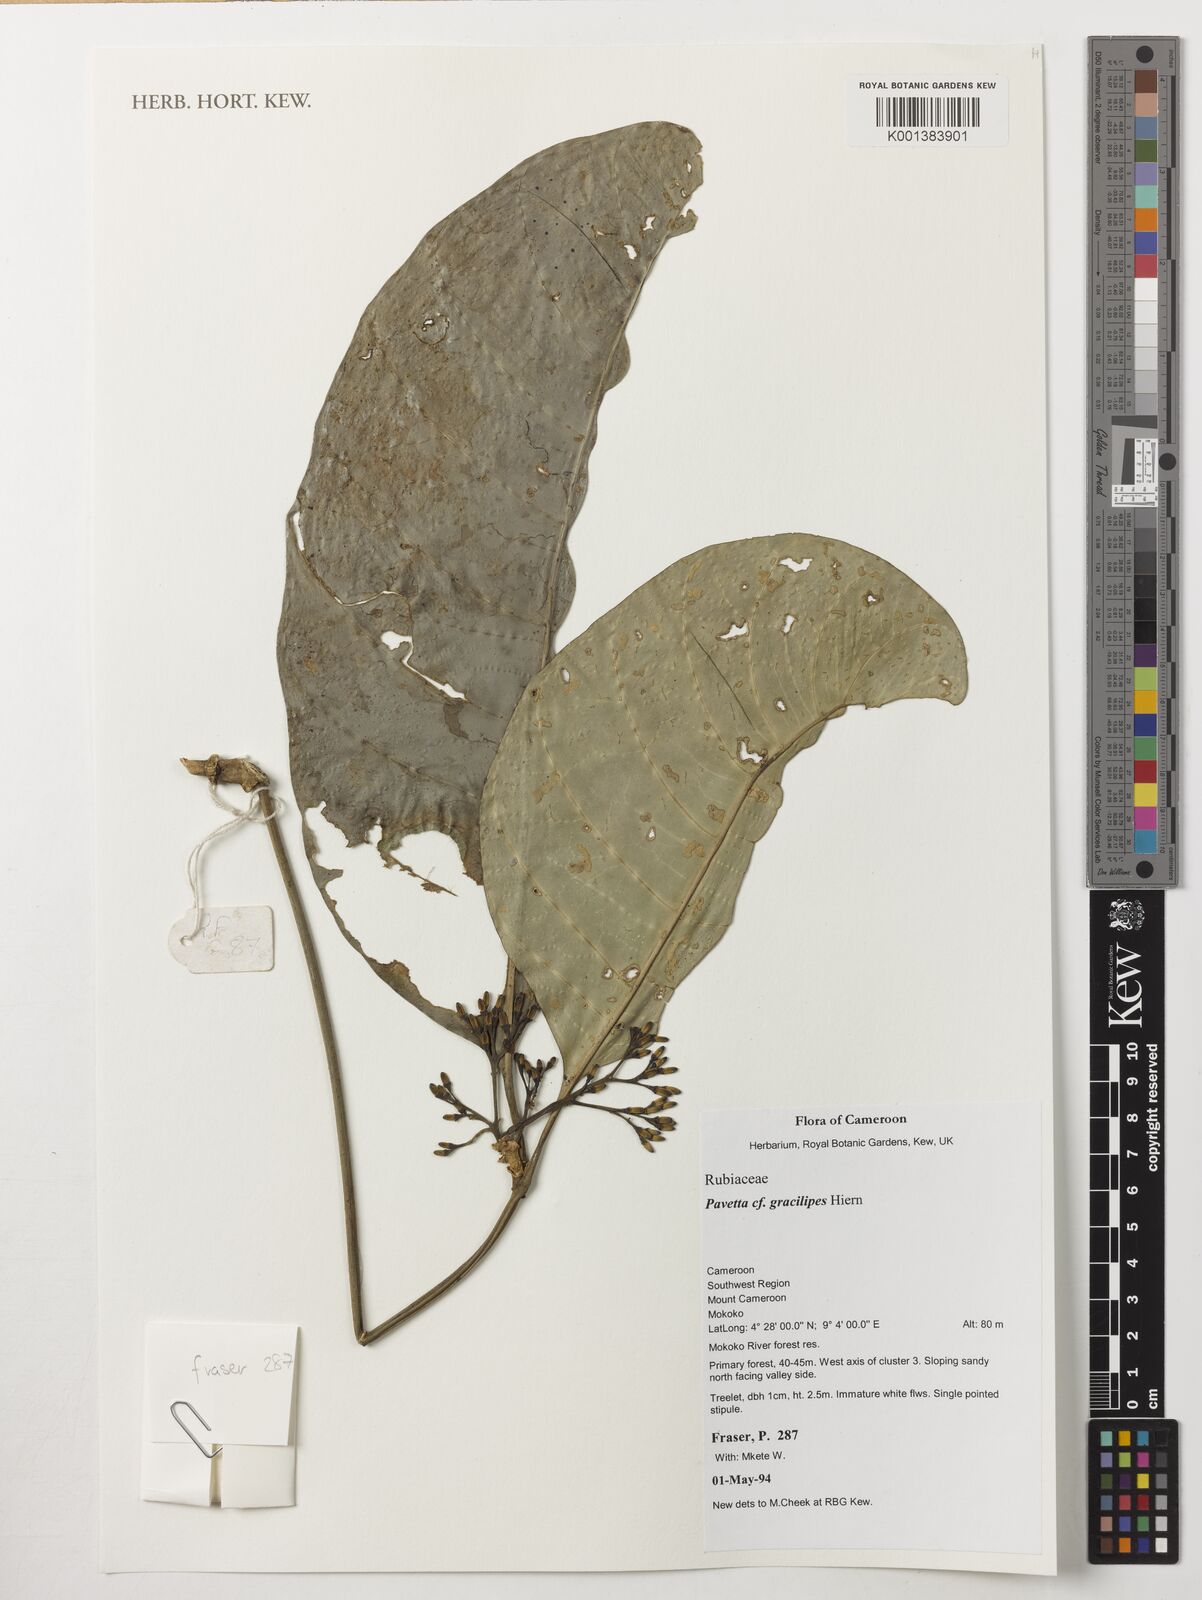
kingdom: Plantae
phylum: Tracheophyta
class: Magnoliopsida
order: Gentianales
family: Rubiaceae
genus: Pavetta
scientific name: Pavetta gracilipes
